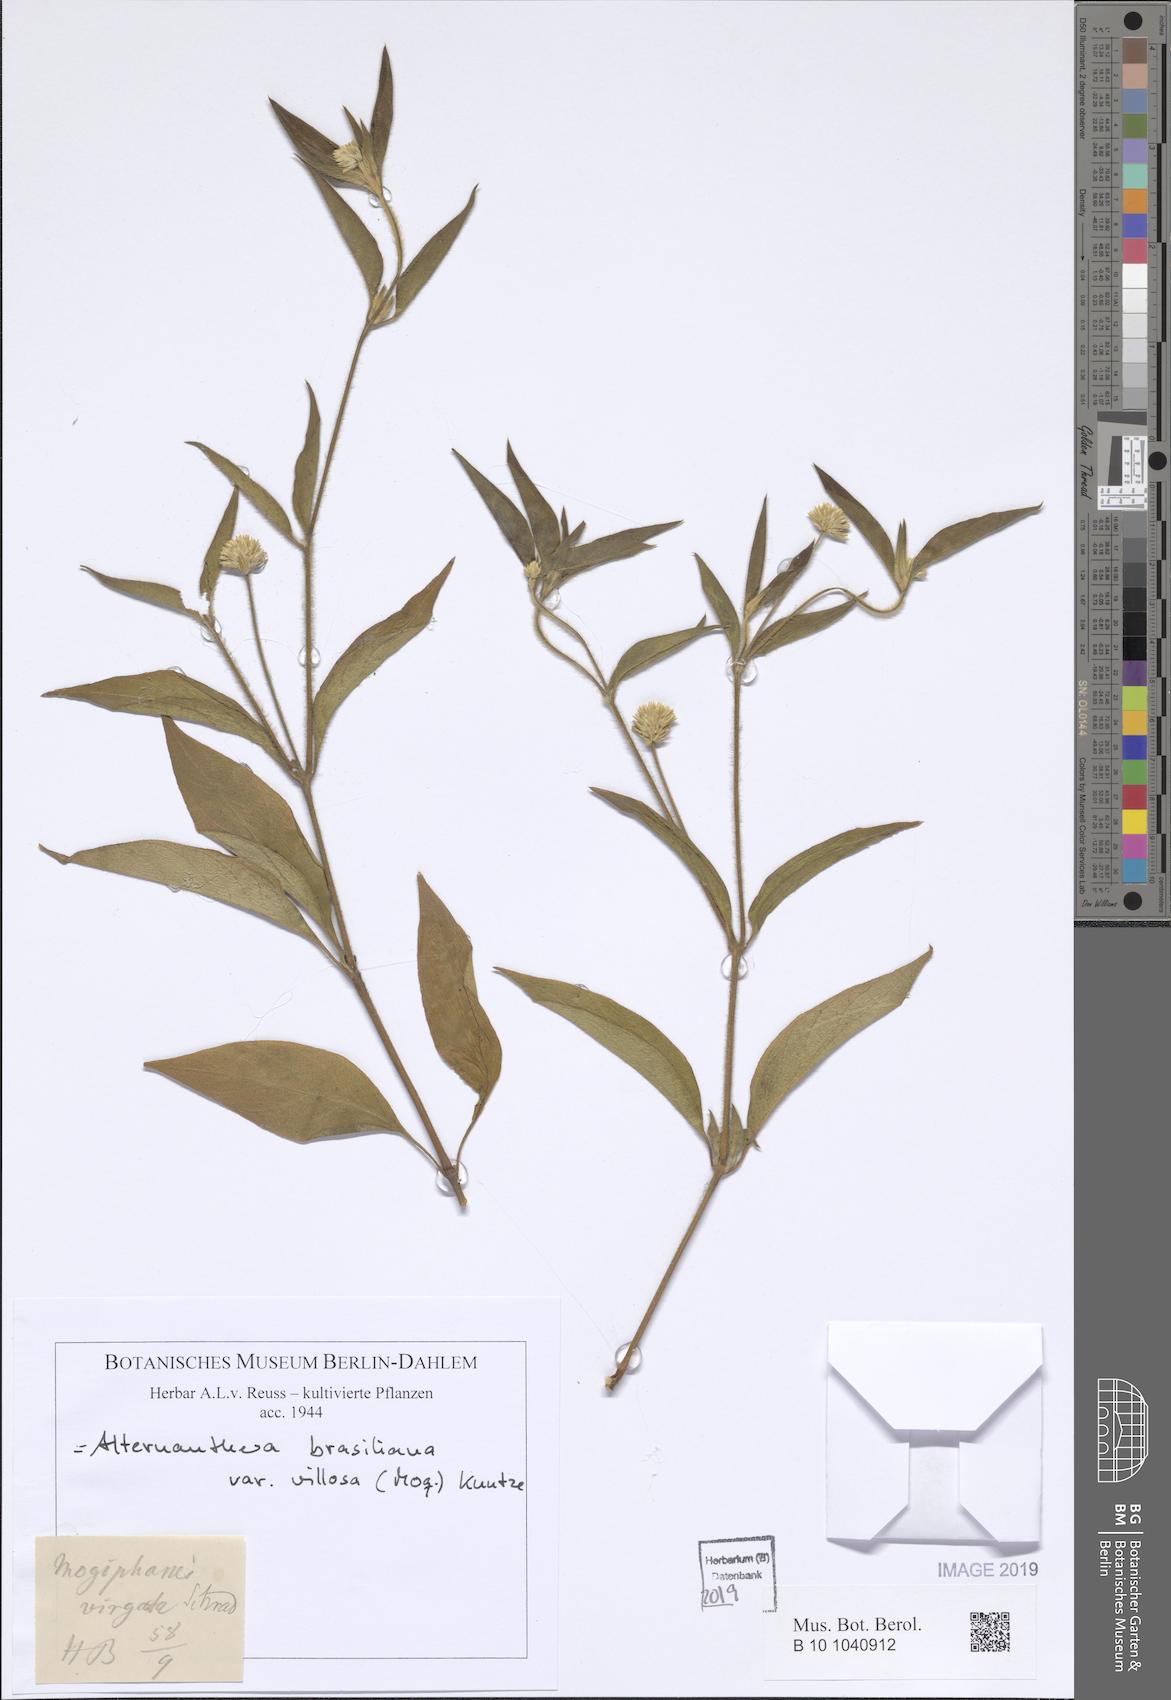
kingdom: Plantae
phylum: Tracheophyta
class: Magnoliopsida
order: Caryophyllales
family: Amaranthaceae
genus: Alternanthera
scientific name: Alternanthera ramosissima
